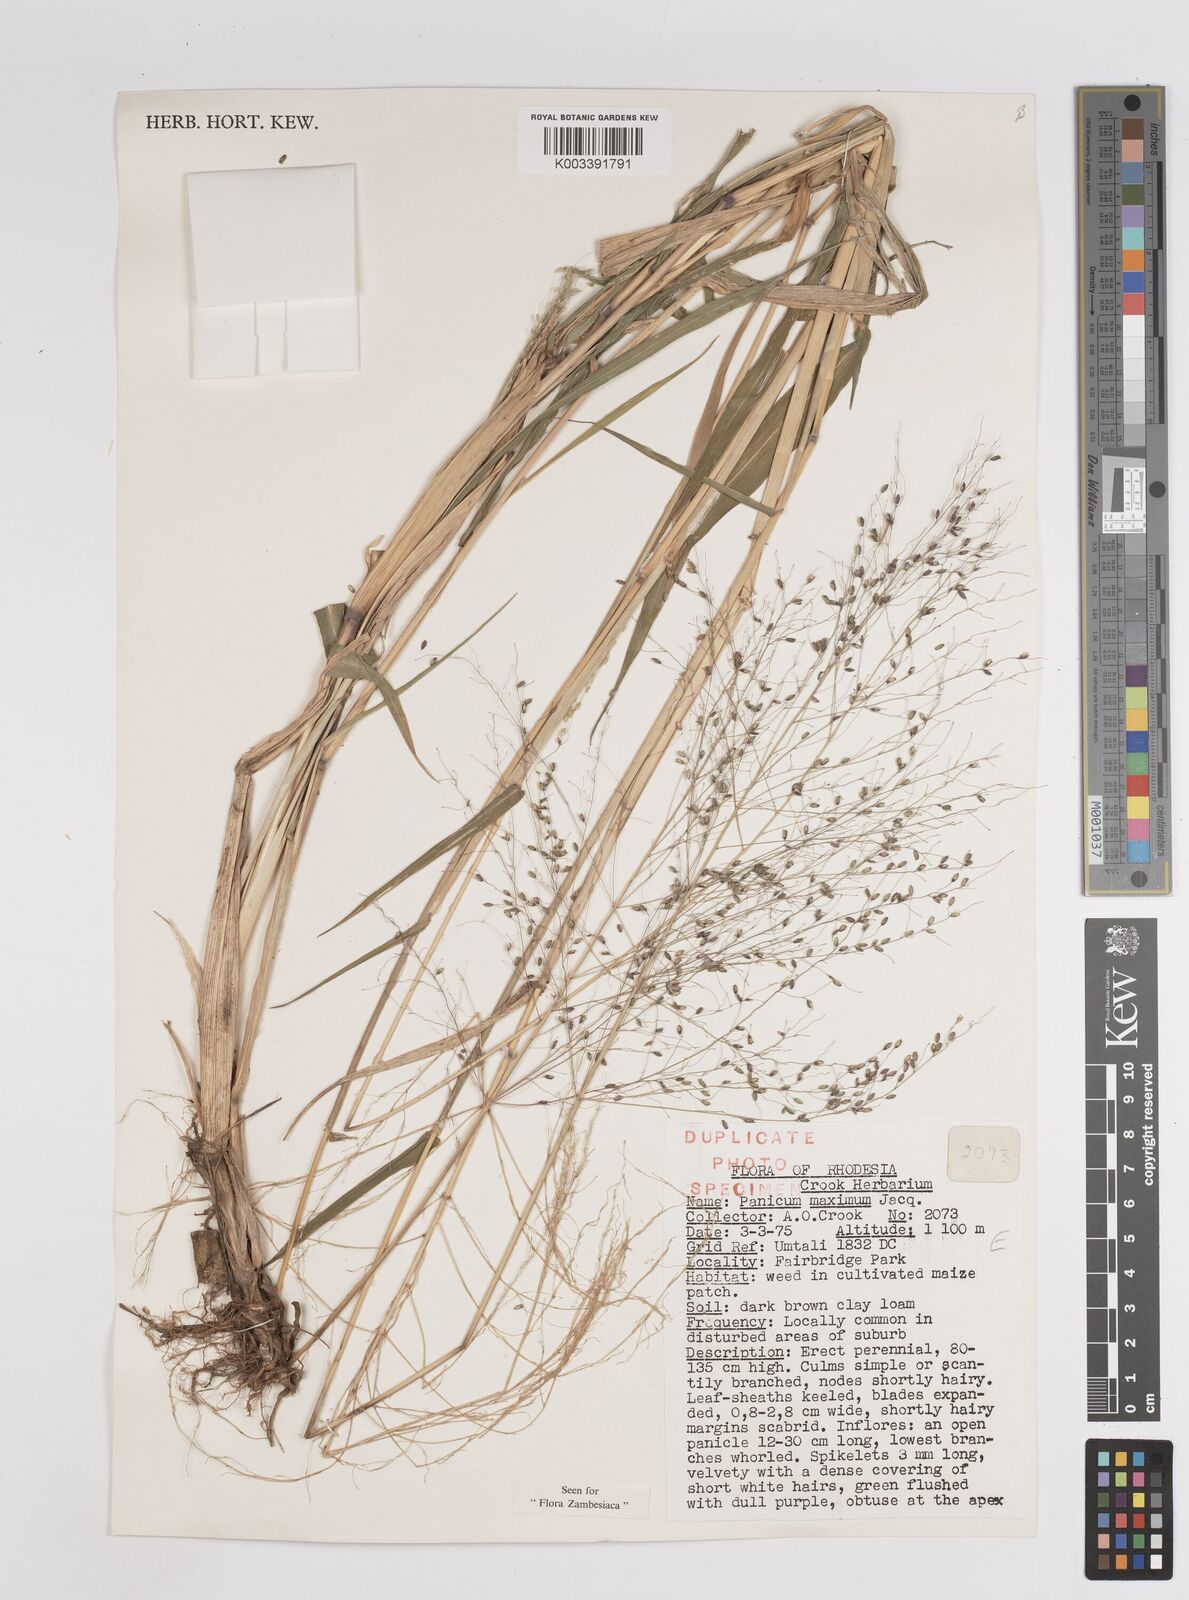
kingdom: Plantae
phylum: Tracheophyta
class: Liliopsida
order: Poales
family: Poaceae
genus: Megathyrsus
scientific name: Megathyrsus maximus
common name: Guineagrass
